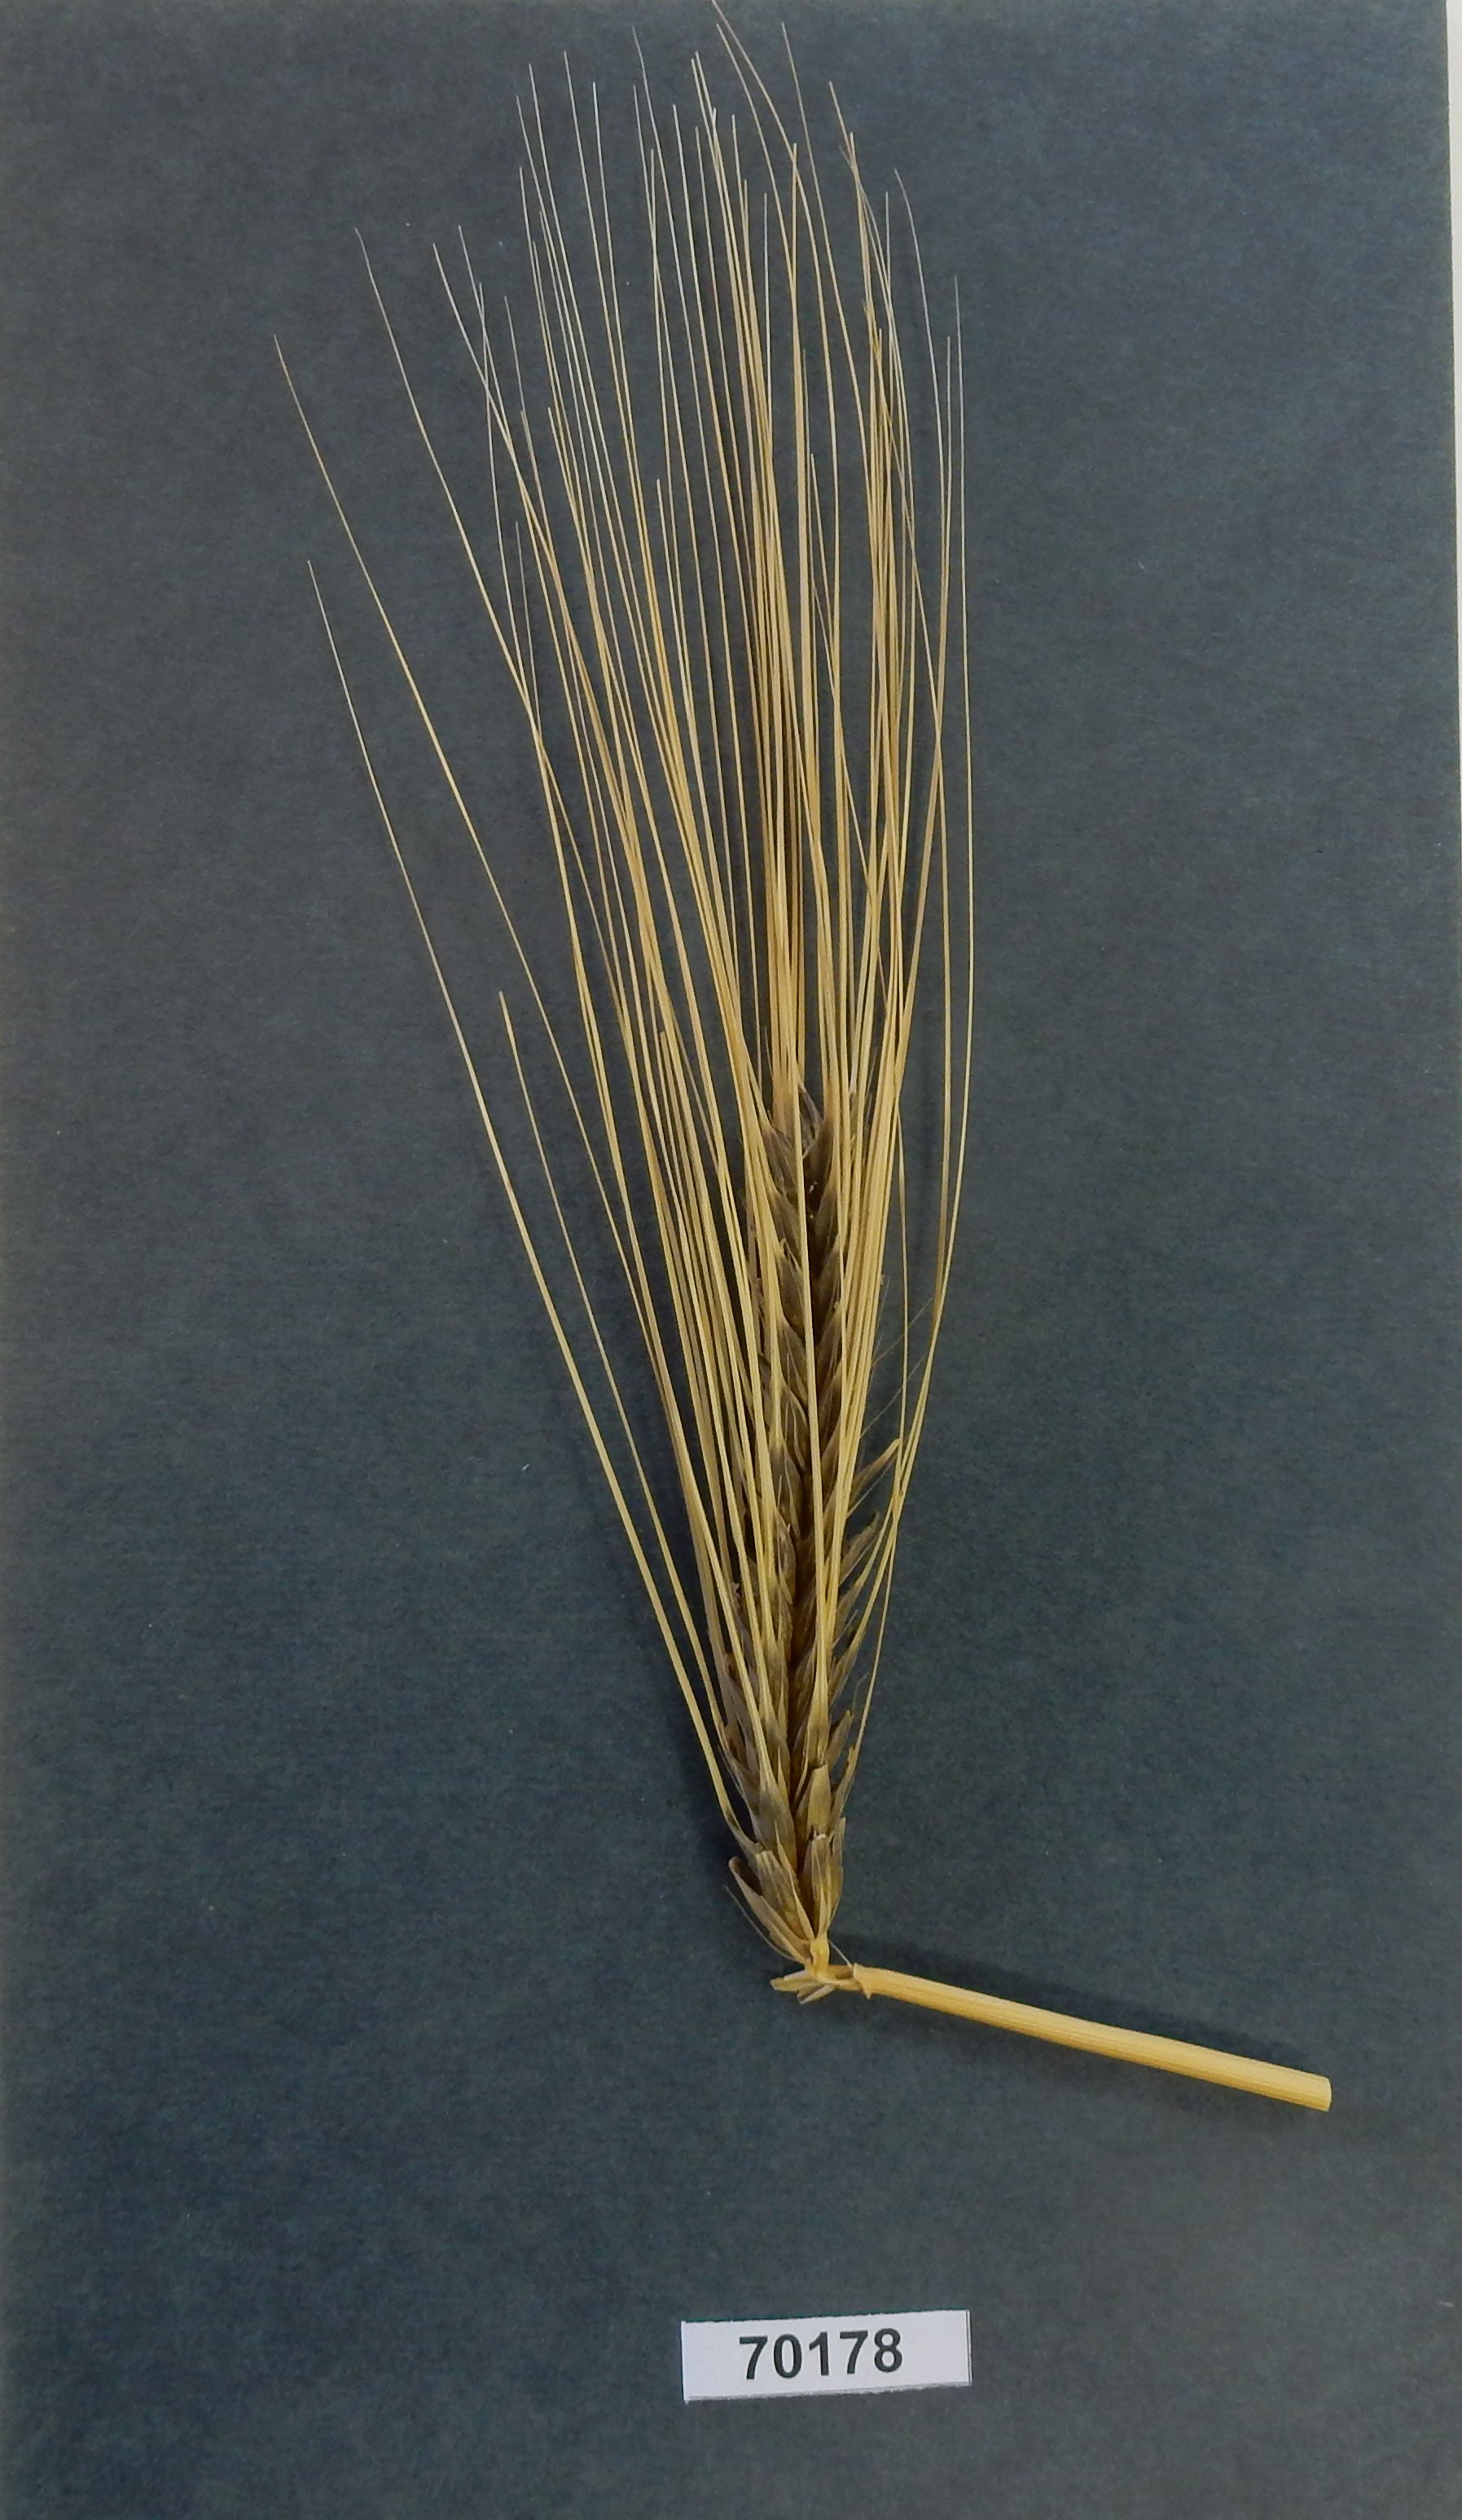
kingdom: Plantae
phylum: Tracheophyta
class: Liliopsida
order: Poales
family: Poaceae
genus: Hordeum
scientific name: Hordeum
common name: Barley
